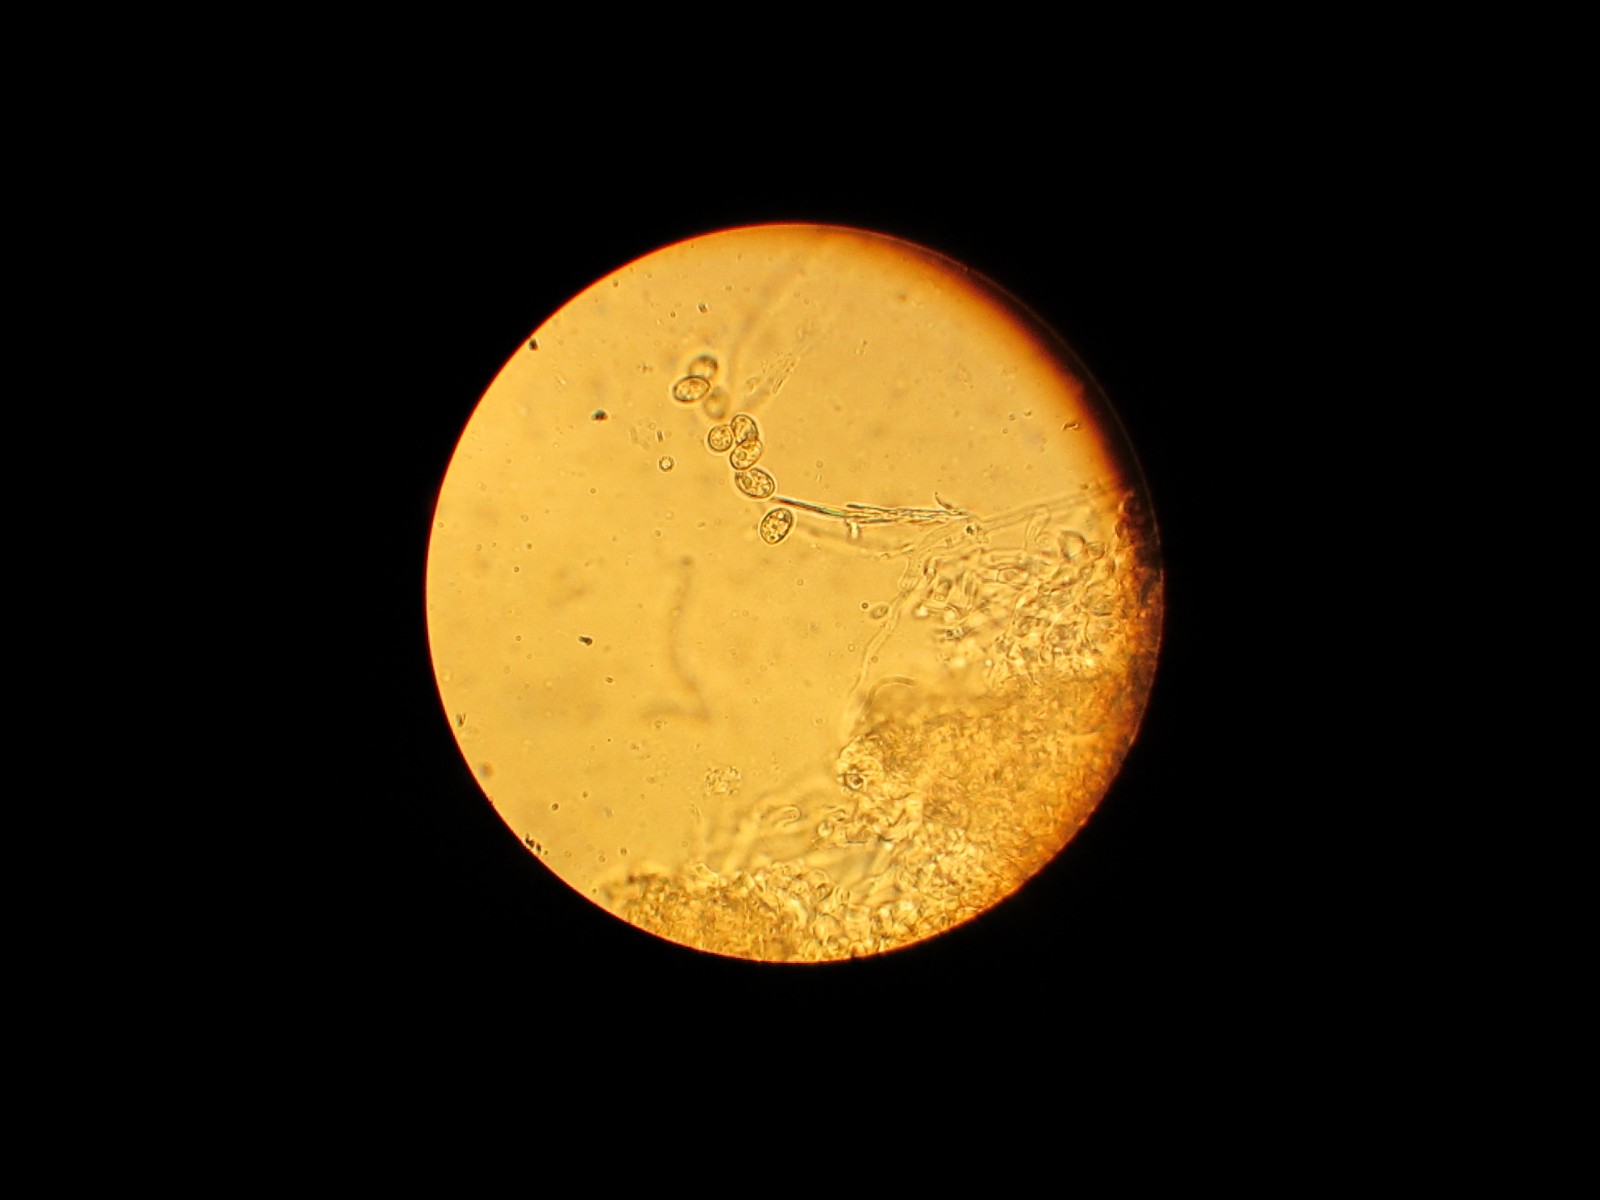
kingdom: Fungi
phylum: Ascomycota
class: Sordariomycetes
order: Hypocreales
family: Hypocreaceae
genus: Trichoderma
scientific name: Trichoderma
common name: kødkerne
